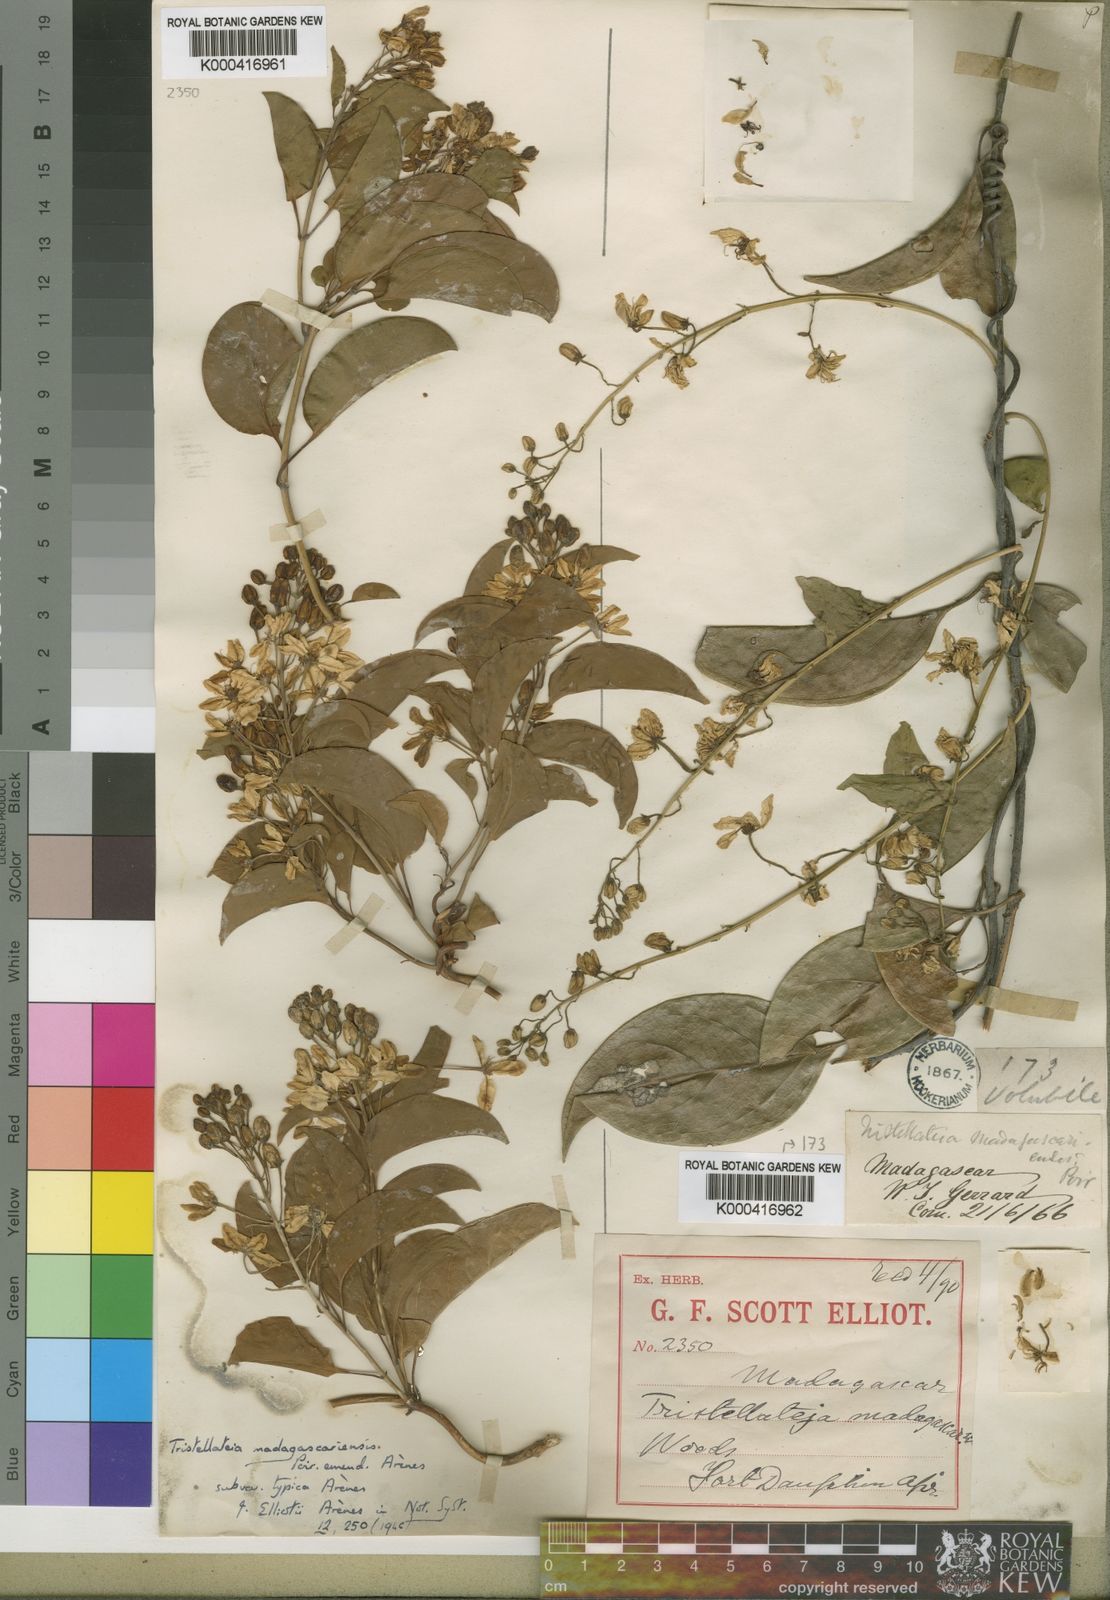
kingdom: Plantae
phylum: Tracheophyta
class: Magnoliopsida
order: Malpighiales
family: Malpighiaceae
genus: Tristellateia
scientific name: Tristellateia madagascariensis
